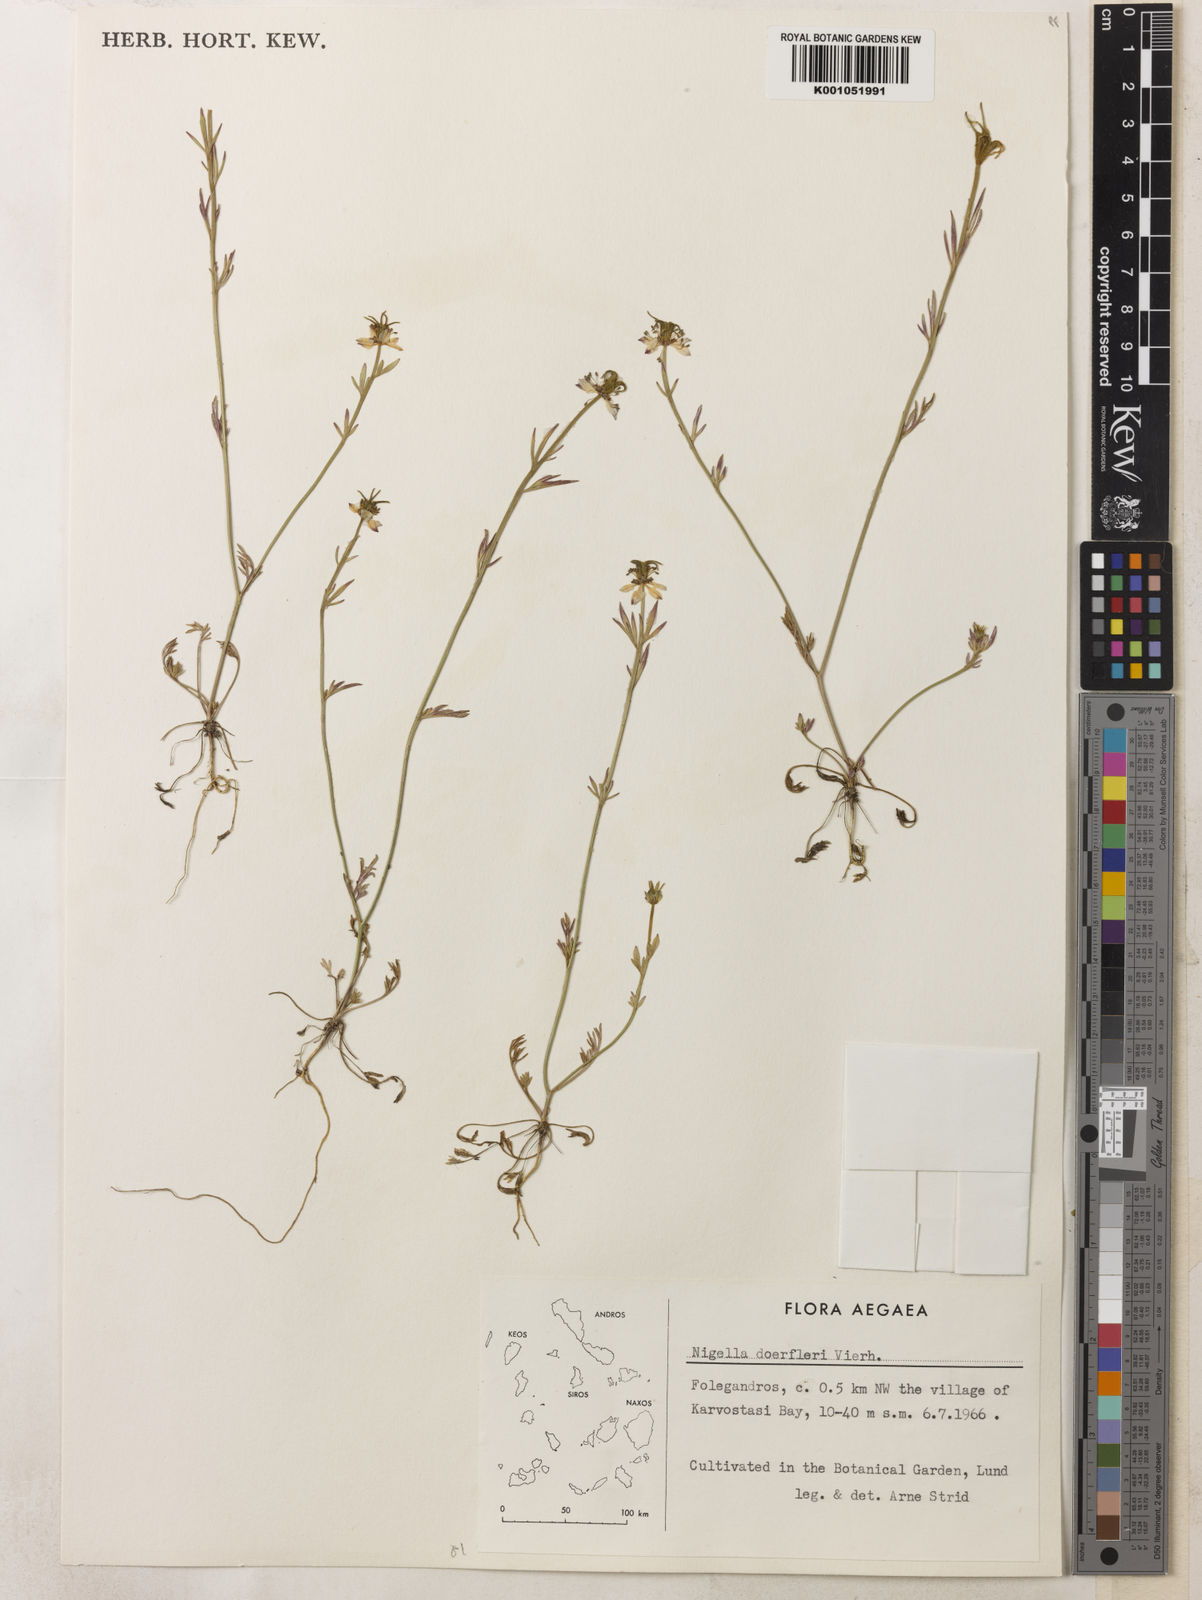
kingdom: Plantae
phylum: Tracheophyta
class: Magnoliopsida
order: Ranunculales
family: Ranunculaceae
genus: Nigella
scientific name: Nigella arvensis
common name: Wild fennel-flower
